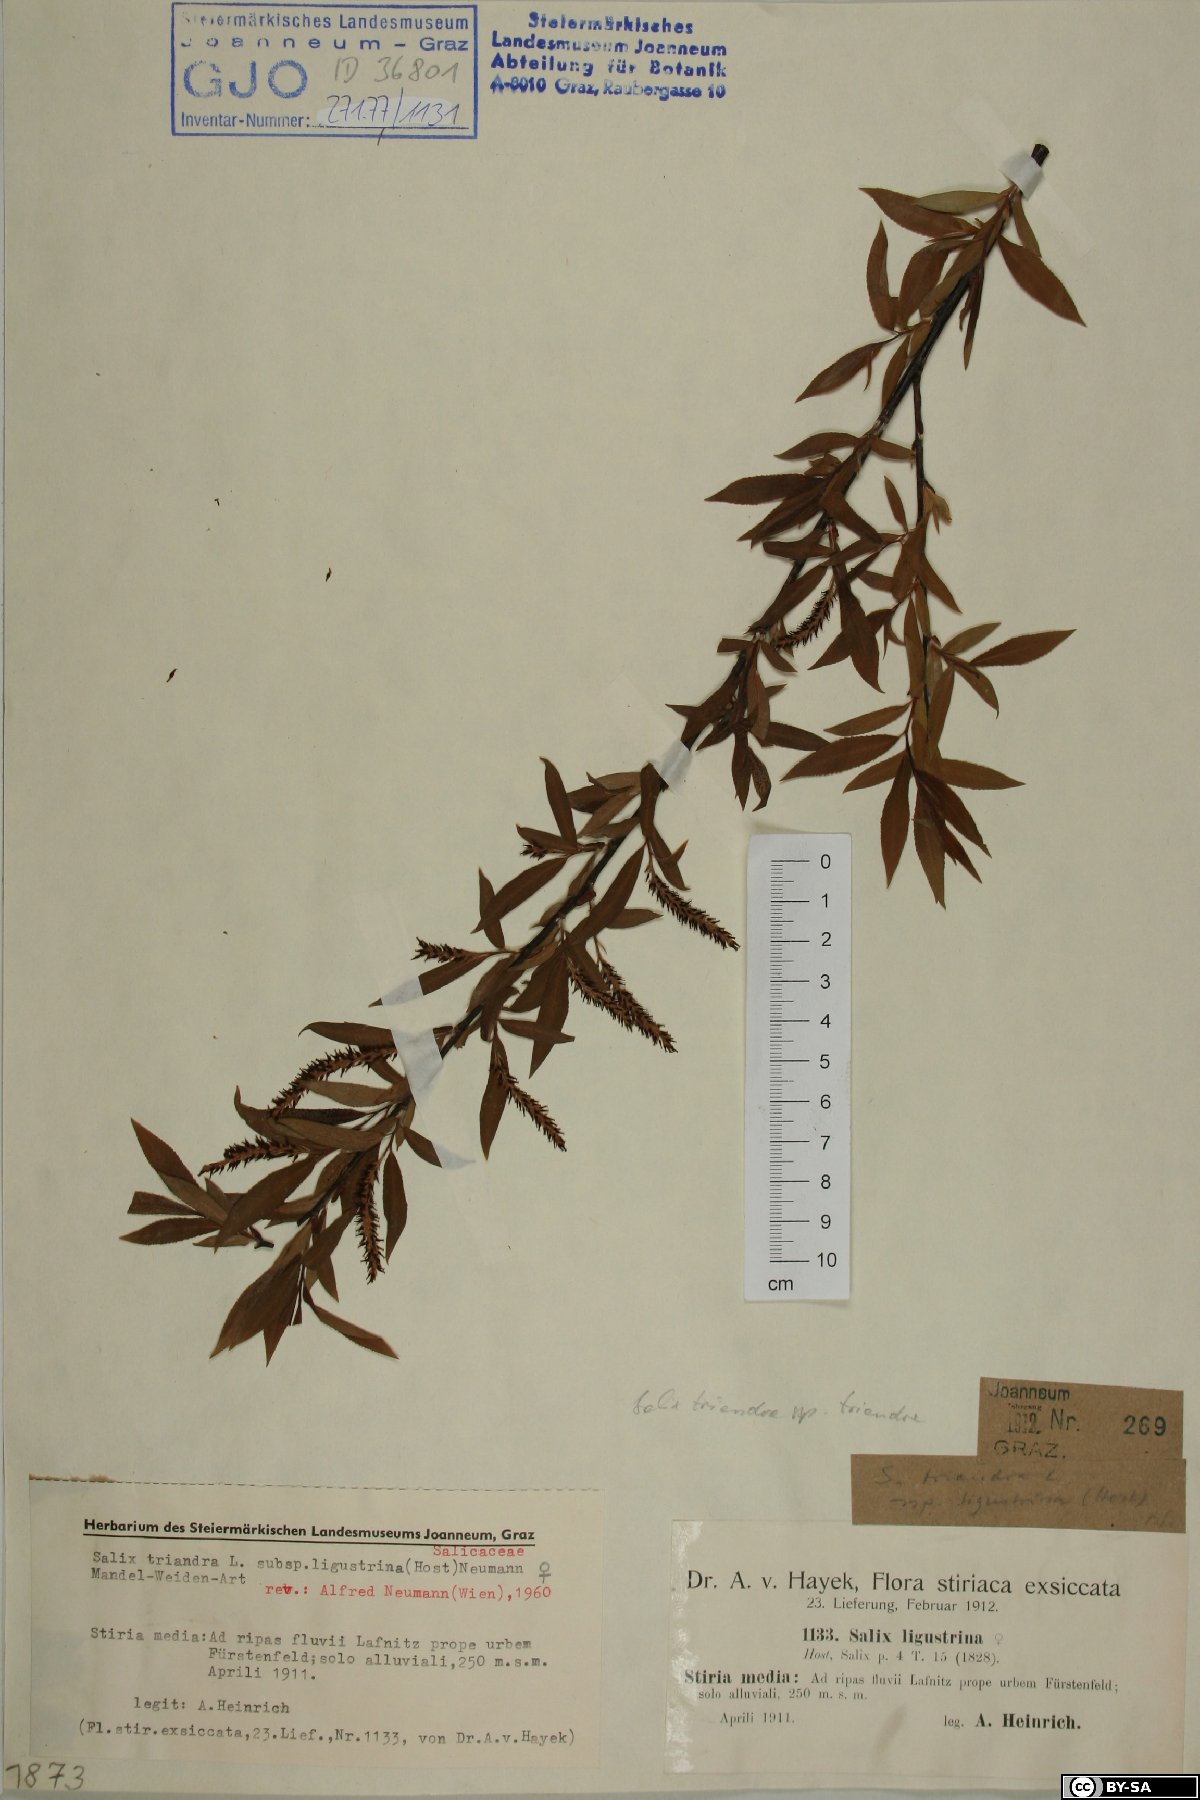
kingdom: Plantae
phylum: Tracheophyta
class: Magnoliopsida
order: Malpighiales
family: Salicaceae
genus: Salix
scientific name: Salix triandra
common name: Almond willow
